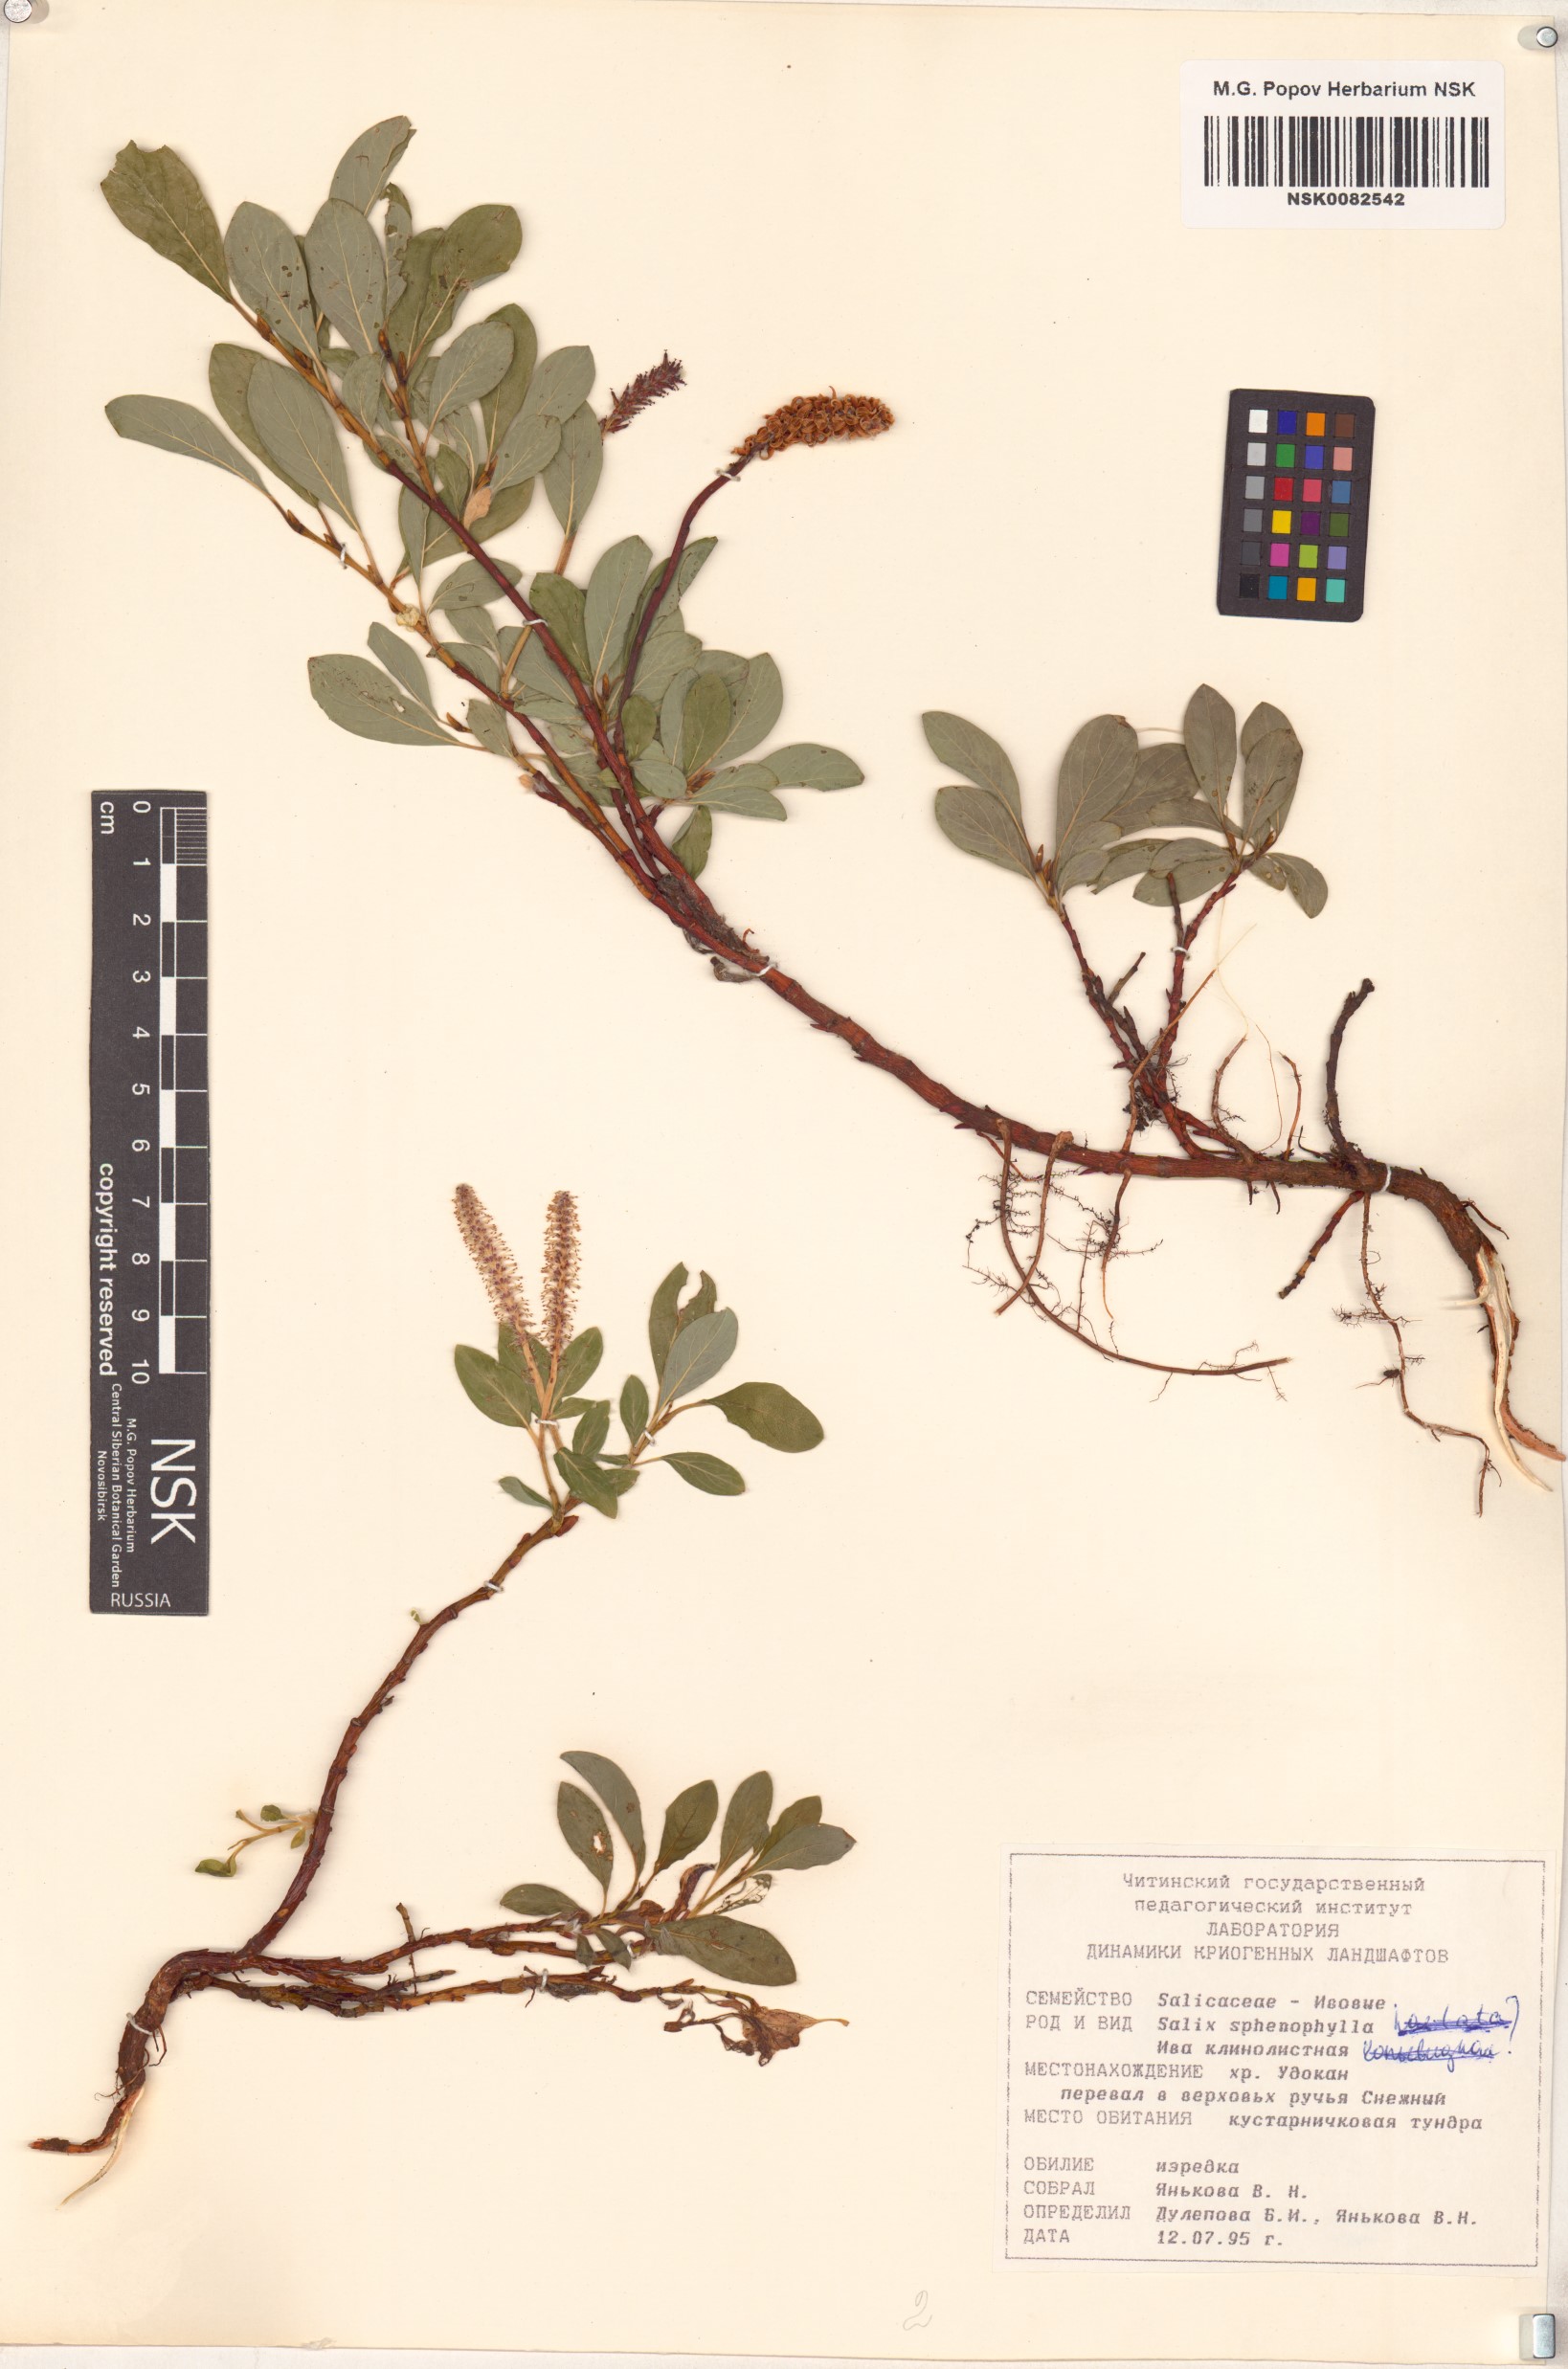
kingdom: Plantae
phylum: Tracheophyta
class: Magnoliopsida
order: Malpighiales
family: Salicaceae
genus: Salix
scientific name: Salix sphenophylla
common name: Wedge-leaved willow
